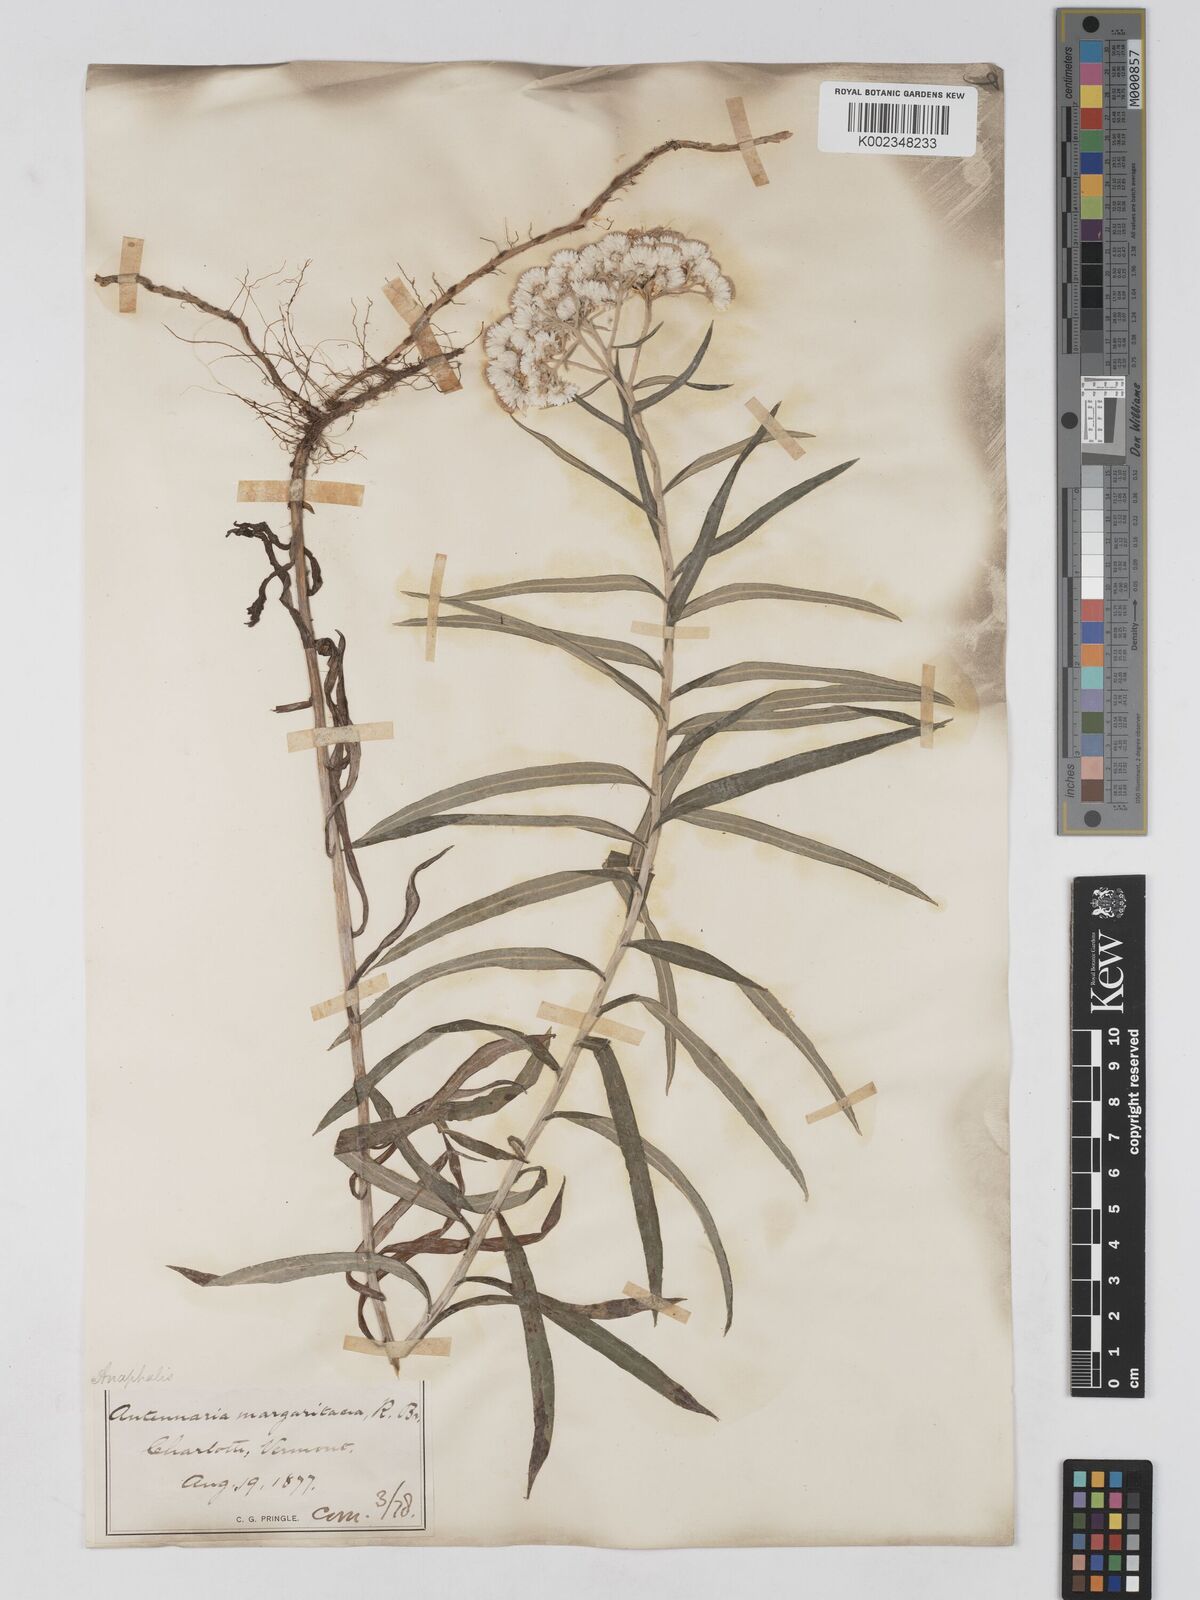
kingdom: Plantae
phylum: Tracheophyta
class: Magnoliopsida
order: Asterales
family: Asteraceae
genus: Anaphalis
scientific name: Anaphalis margaritacea
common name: Pearly everlasting
